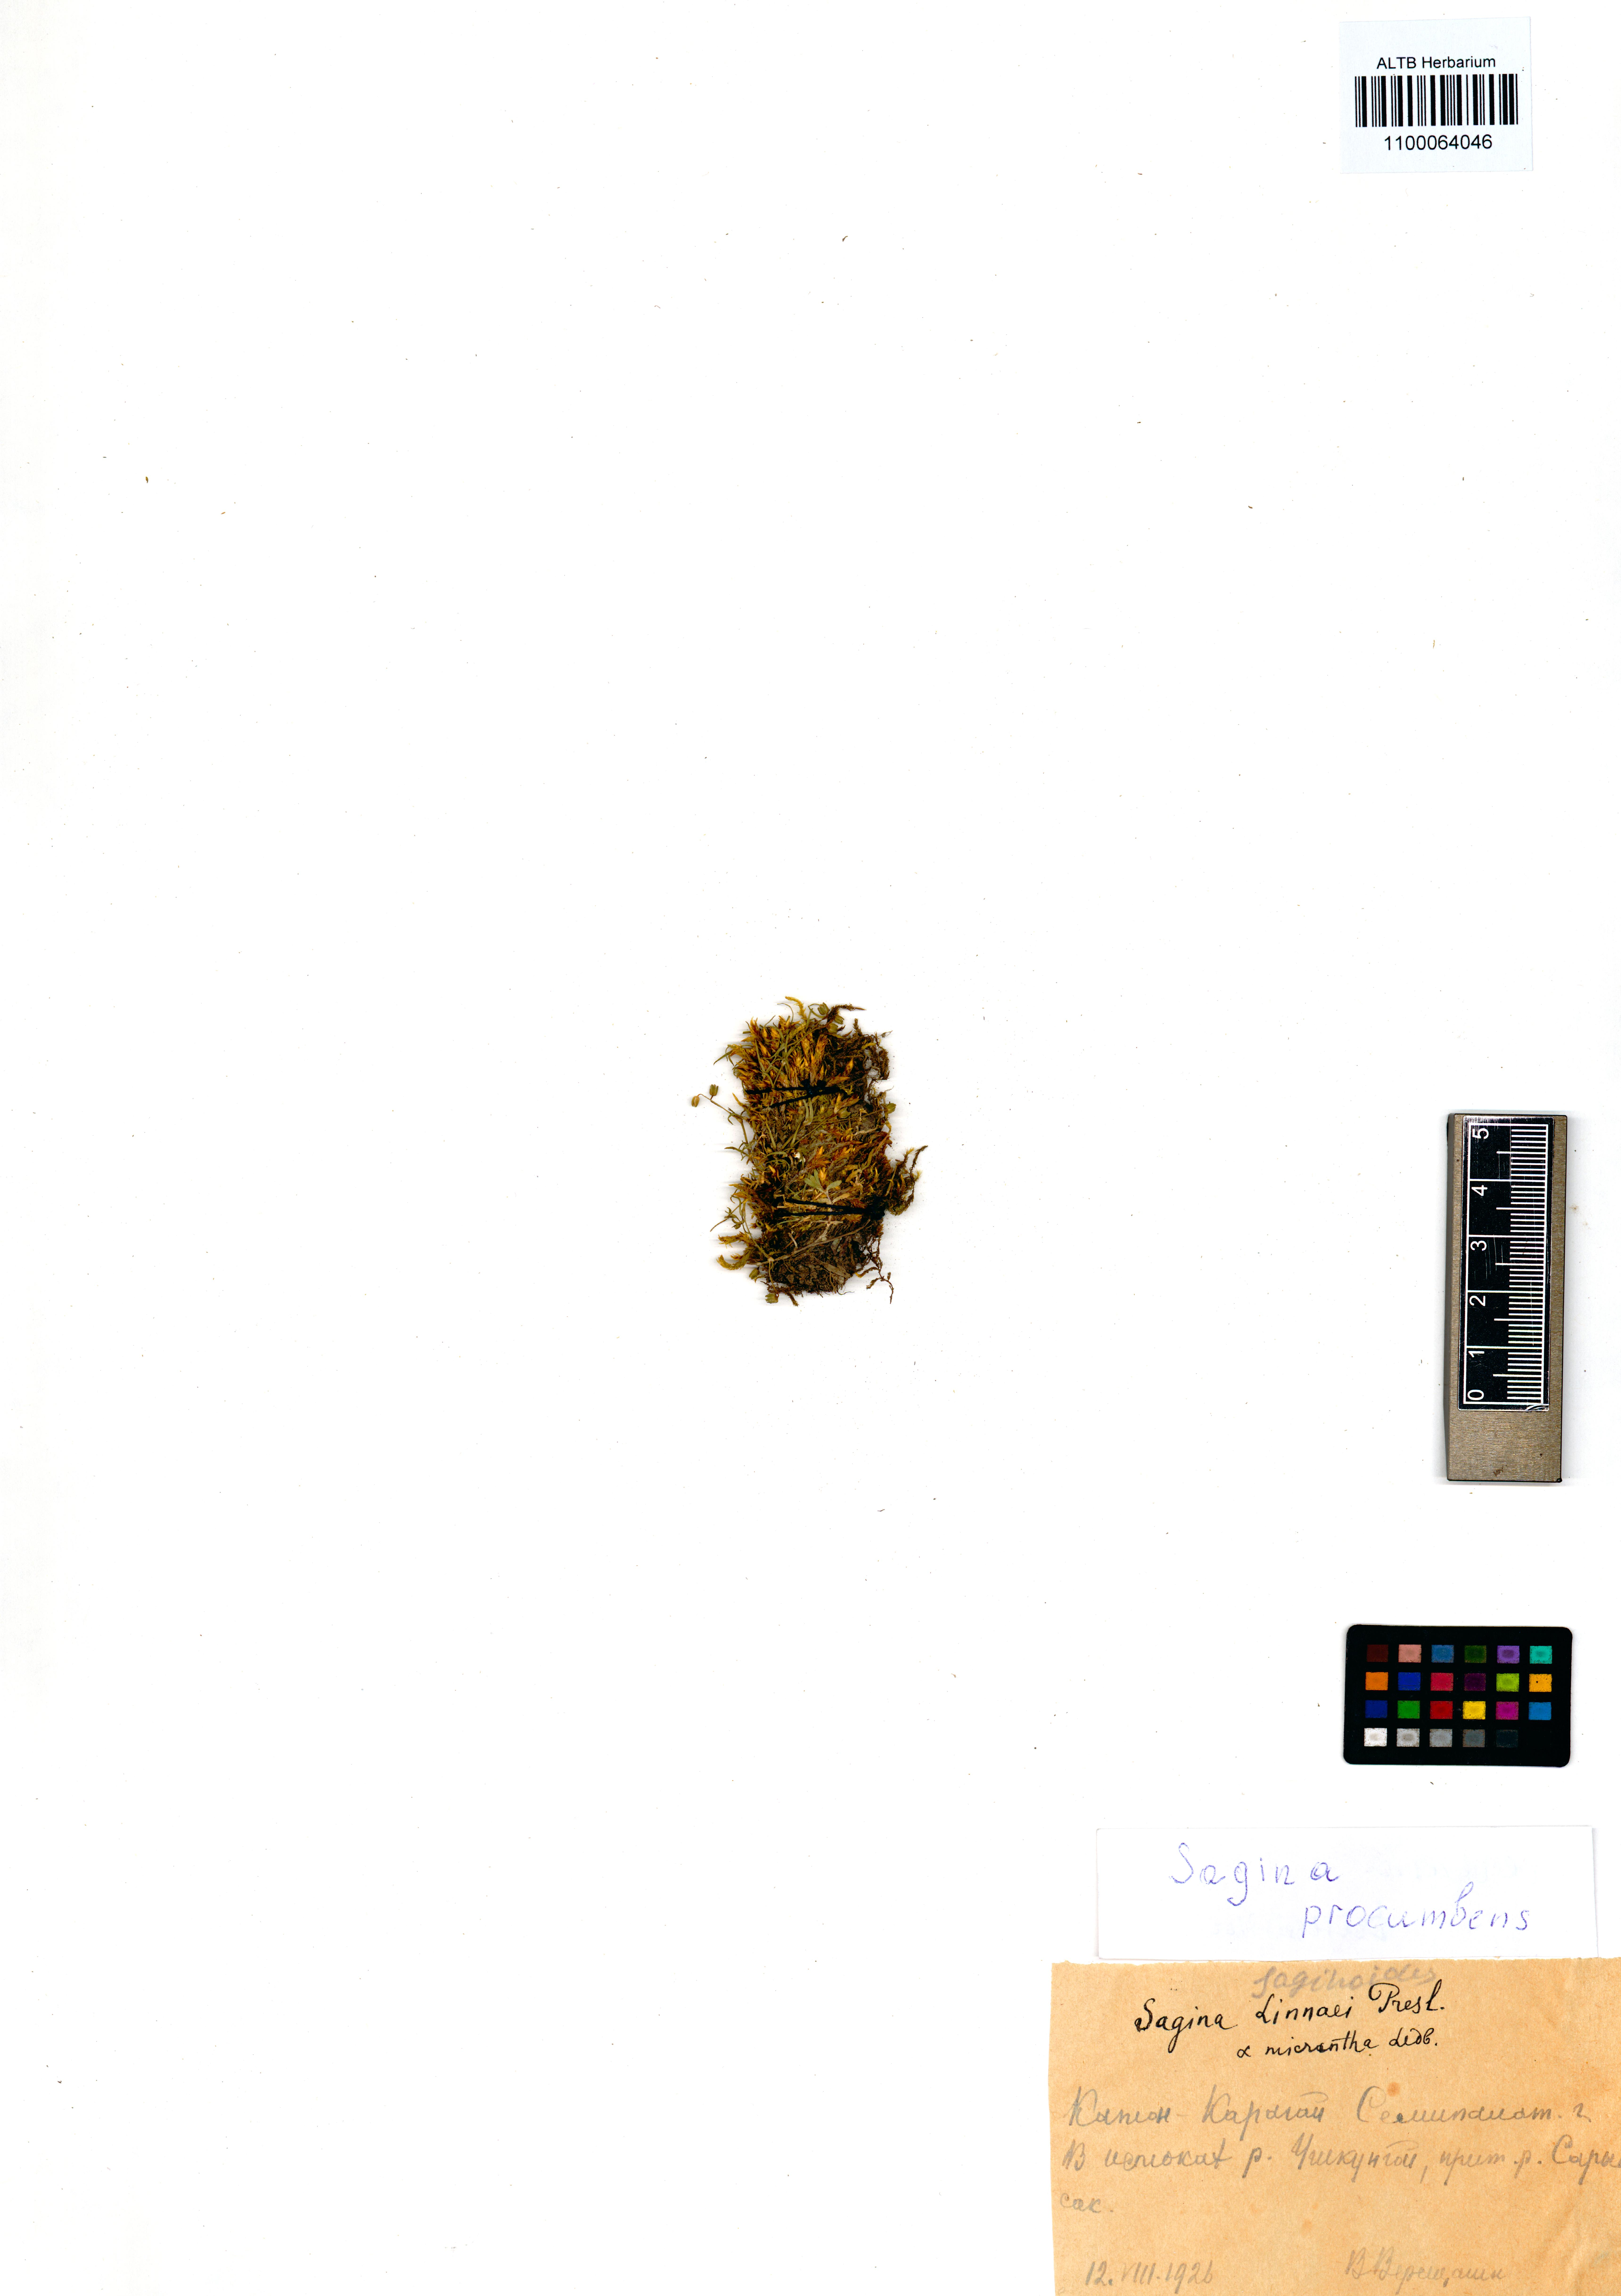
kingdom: Plantae
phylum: Tracheophyta
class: Magnoliopsida
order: Caryophyllales
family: Caryophyllaceae
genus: Sagina
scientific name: Sagina procumbens
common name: Procumbent pearlwort
